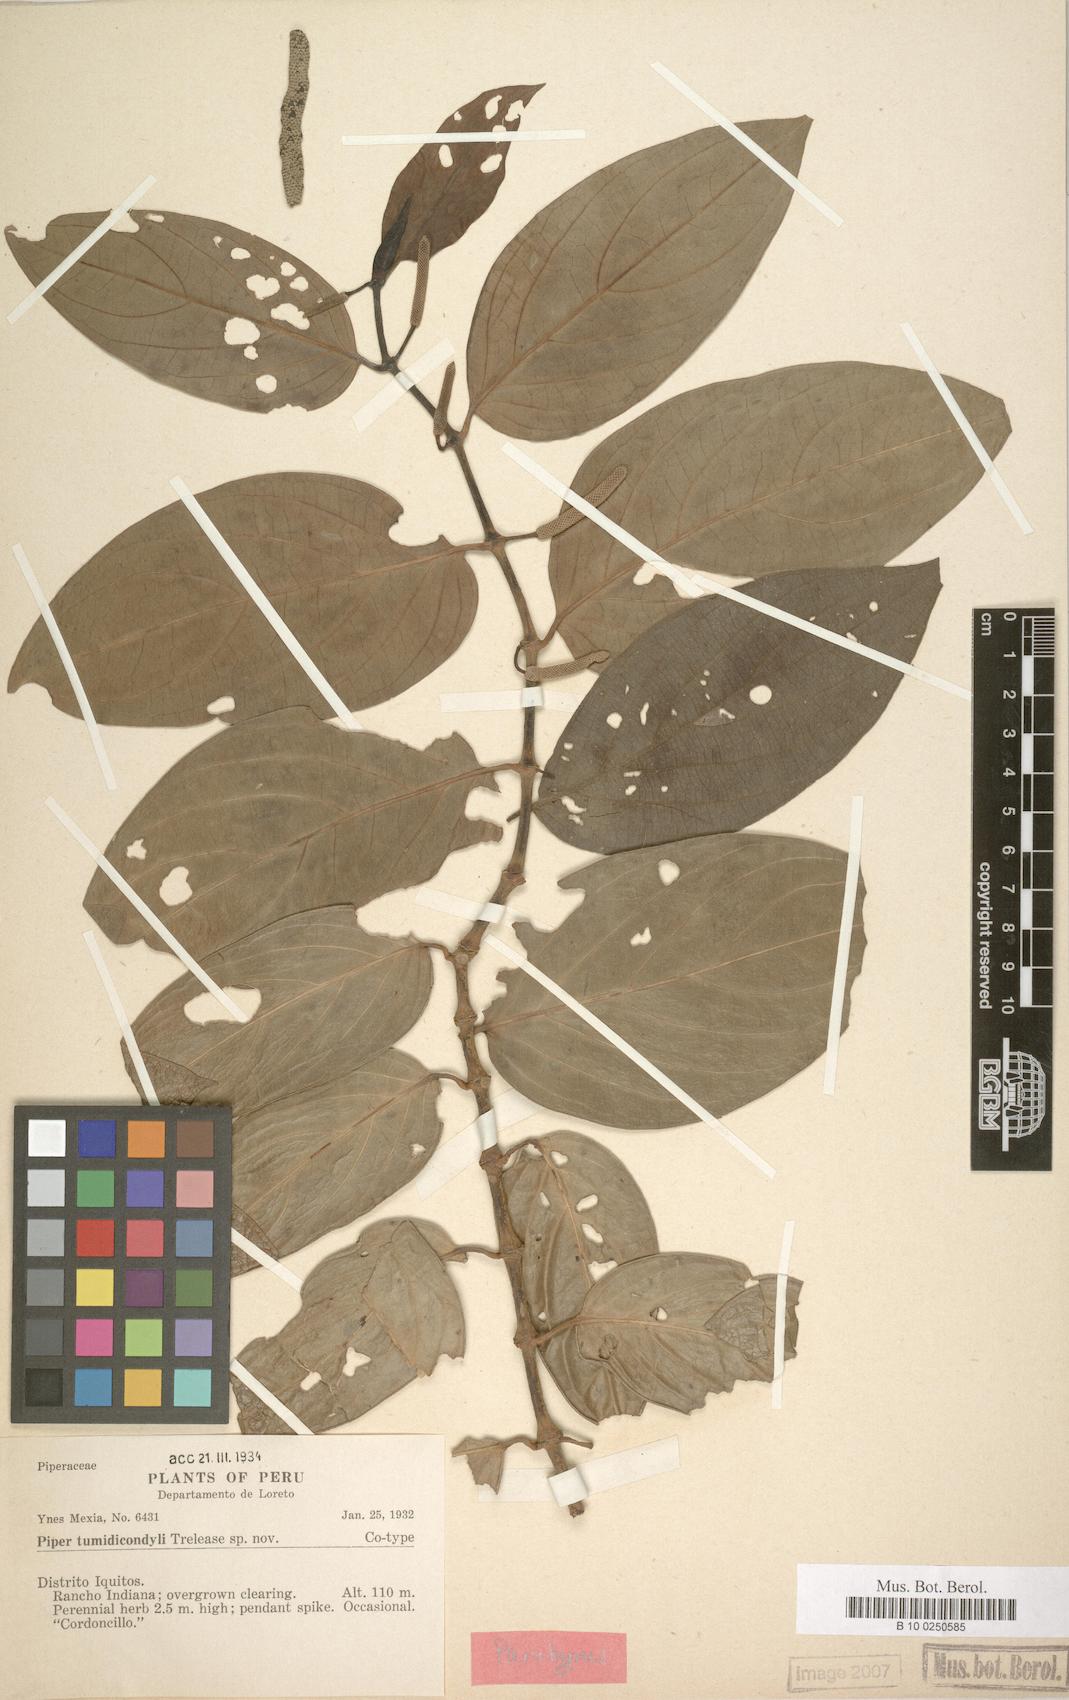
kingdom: Plantae
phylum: Tracheophyta
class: Magnoliopsida
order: Piperales
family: Piperaceae
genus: Piper
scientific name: Piper divaricatum
